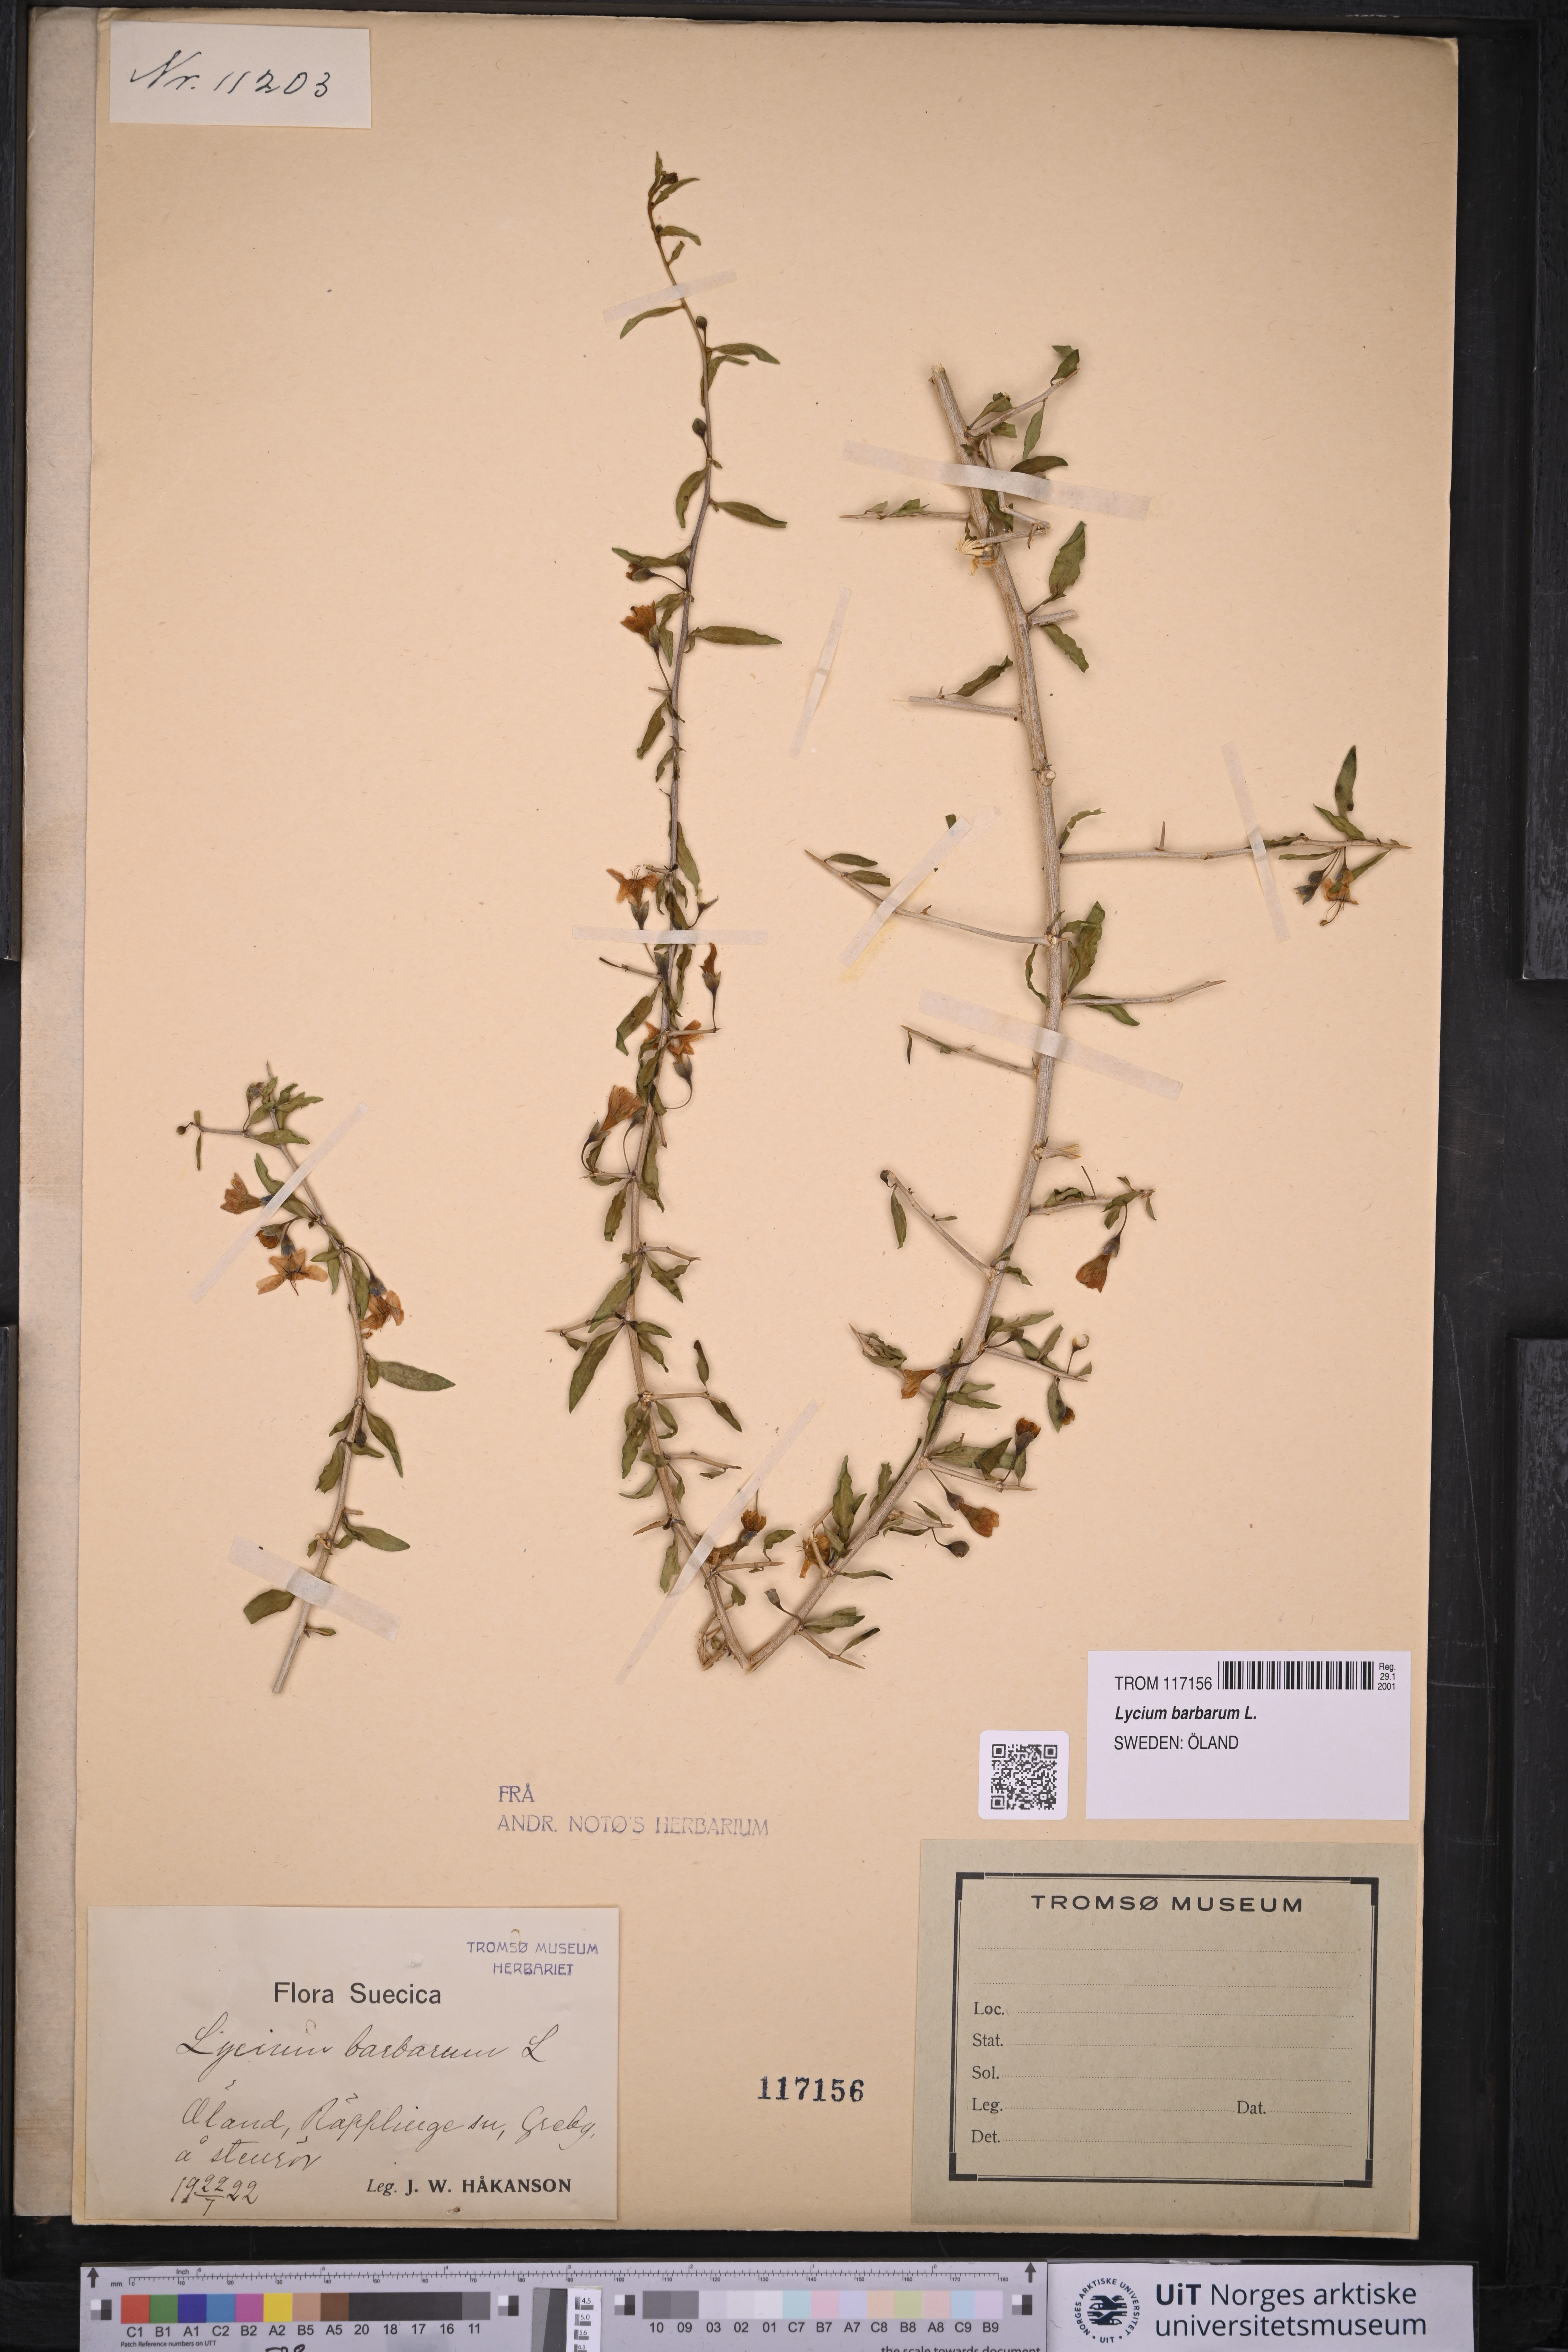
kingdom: Plantae
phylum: Tracheophyta
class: Magnoliopsida
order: Solanales
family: Solanaceae
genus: Lycium
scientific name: Lycium barbarum
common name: Duke of argyll's teaplant
